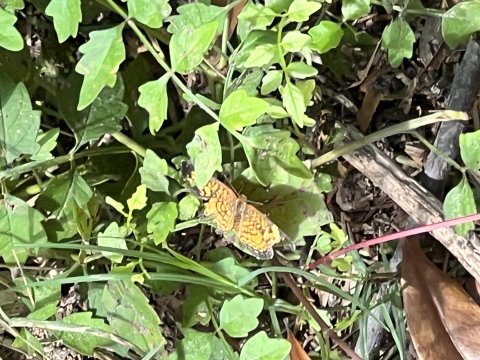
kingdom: Animalia
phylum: Arthropoda
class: Insecta
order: Lepidoptera
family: Nymphalidae
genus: Phyciodes
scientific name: Phyciodes tharos
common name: Pearl Crescent
